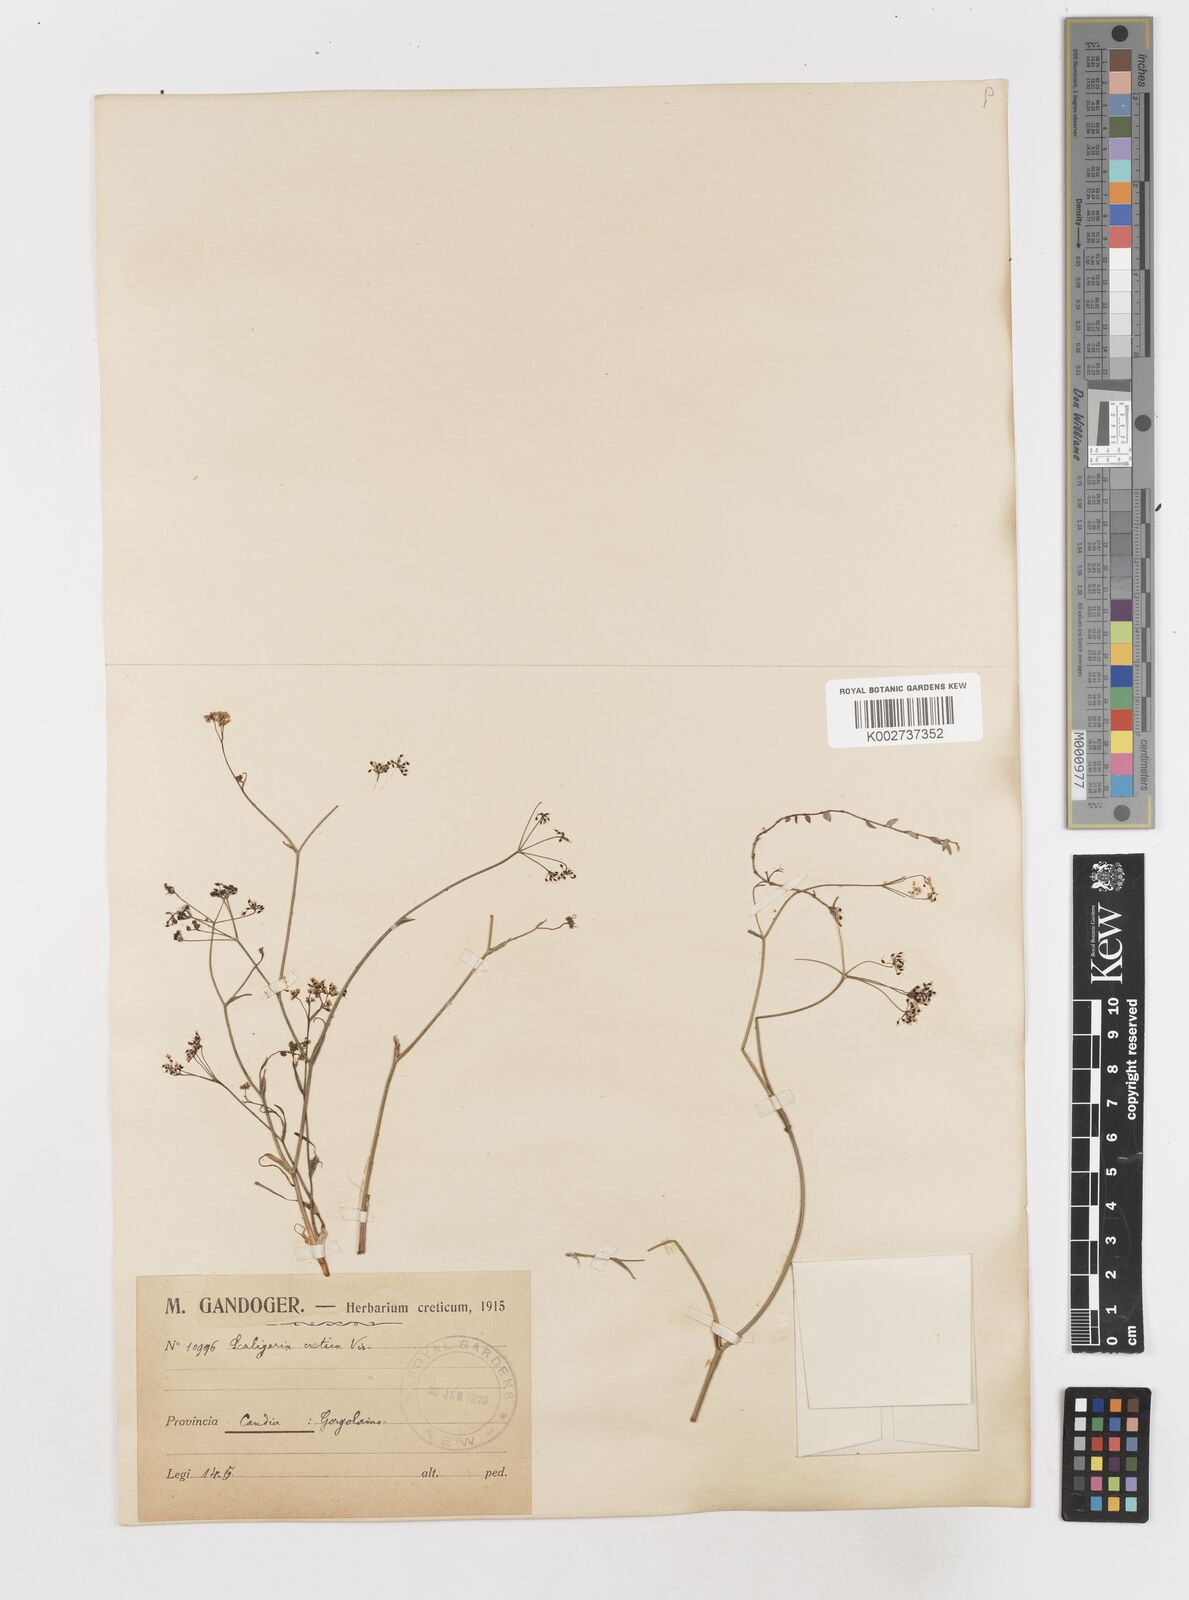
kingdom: Plantae
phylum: Tracheophyta
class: Magnoliopsida
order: Apiales
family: Apiaceae
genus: Scaligeria
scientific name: Scaligeria napiformis
